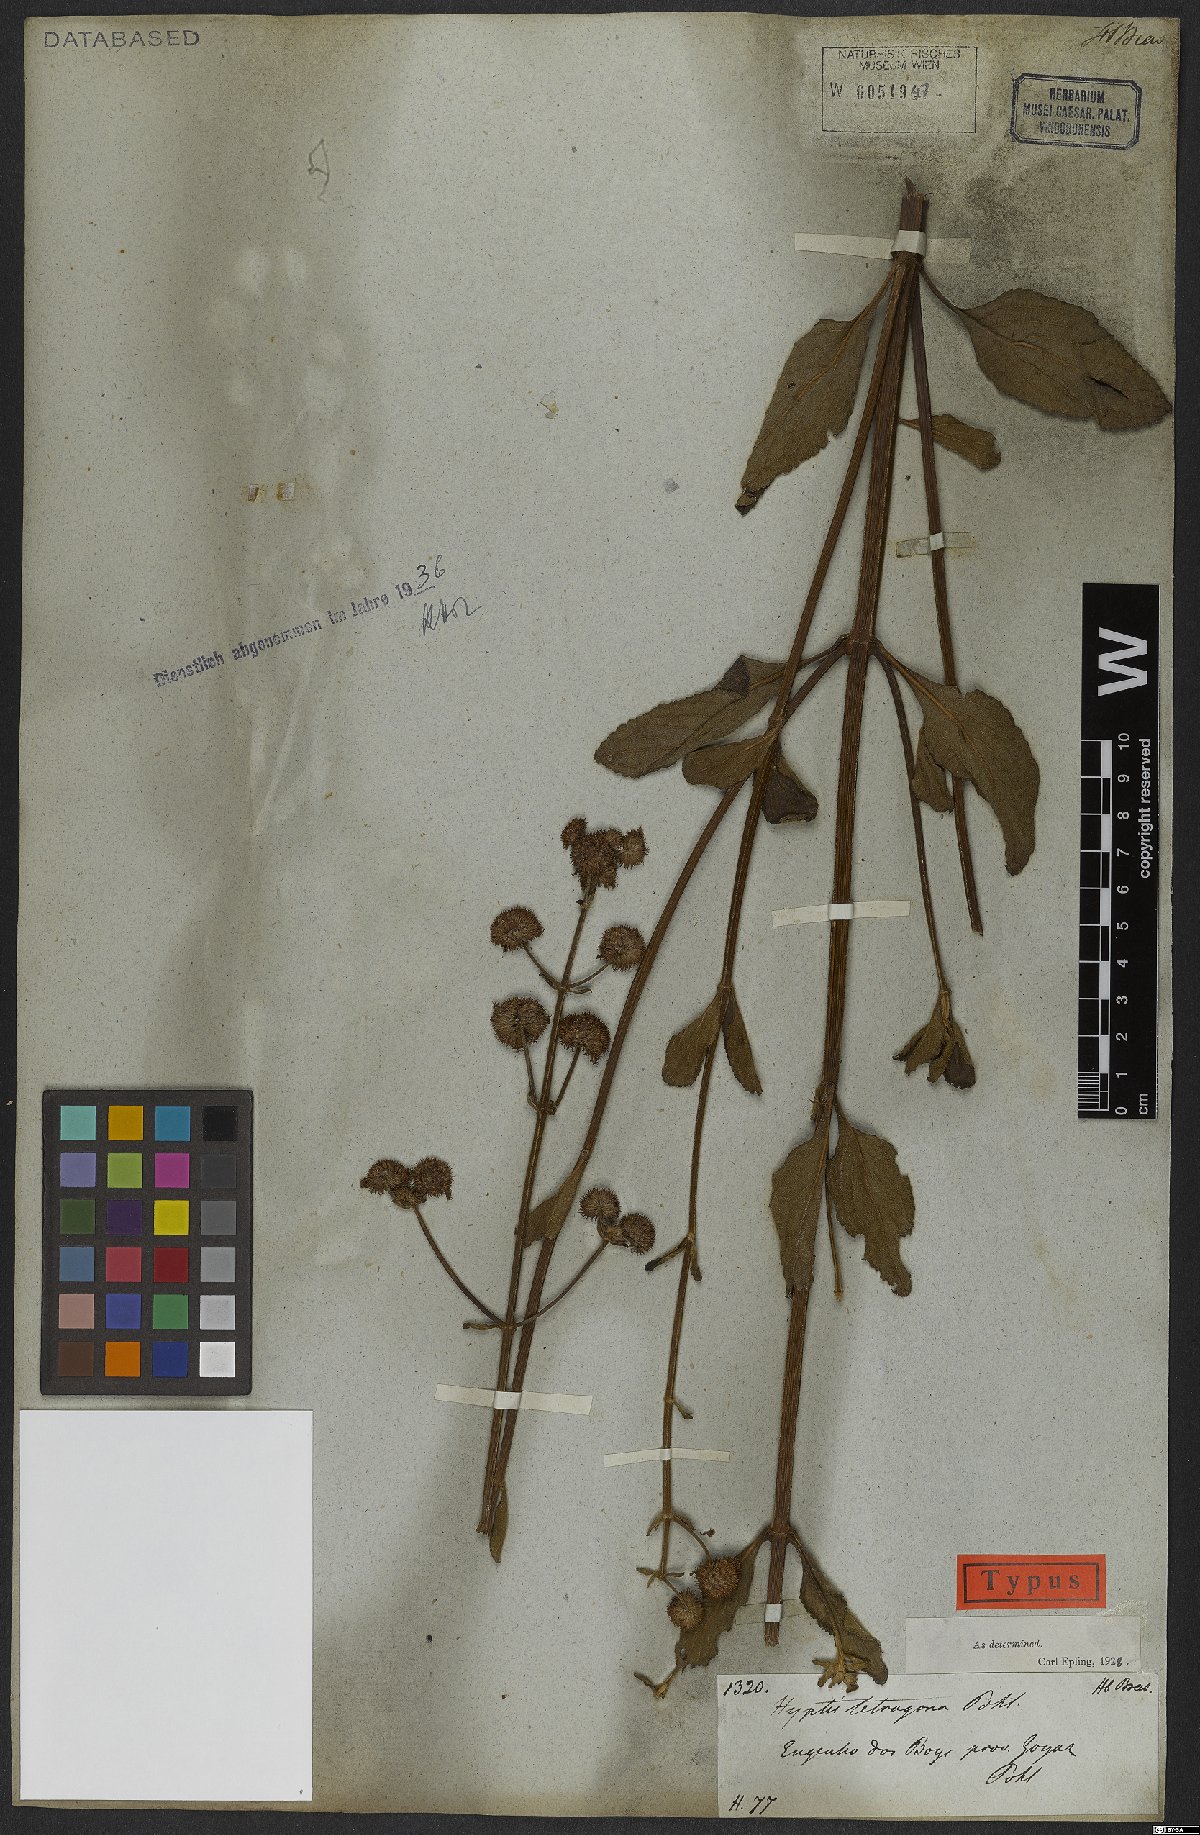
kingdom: Plantae
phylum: Tracheophyta
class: Magnoliopsida
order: Lamiales
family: Lamiaceae
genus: Hyptis
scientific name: Hyptis tetragona
